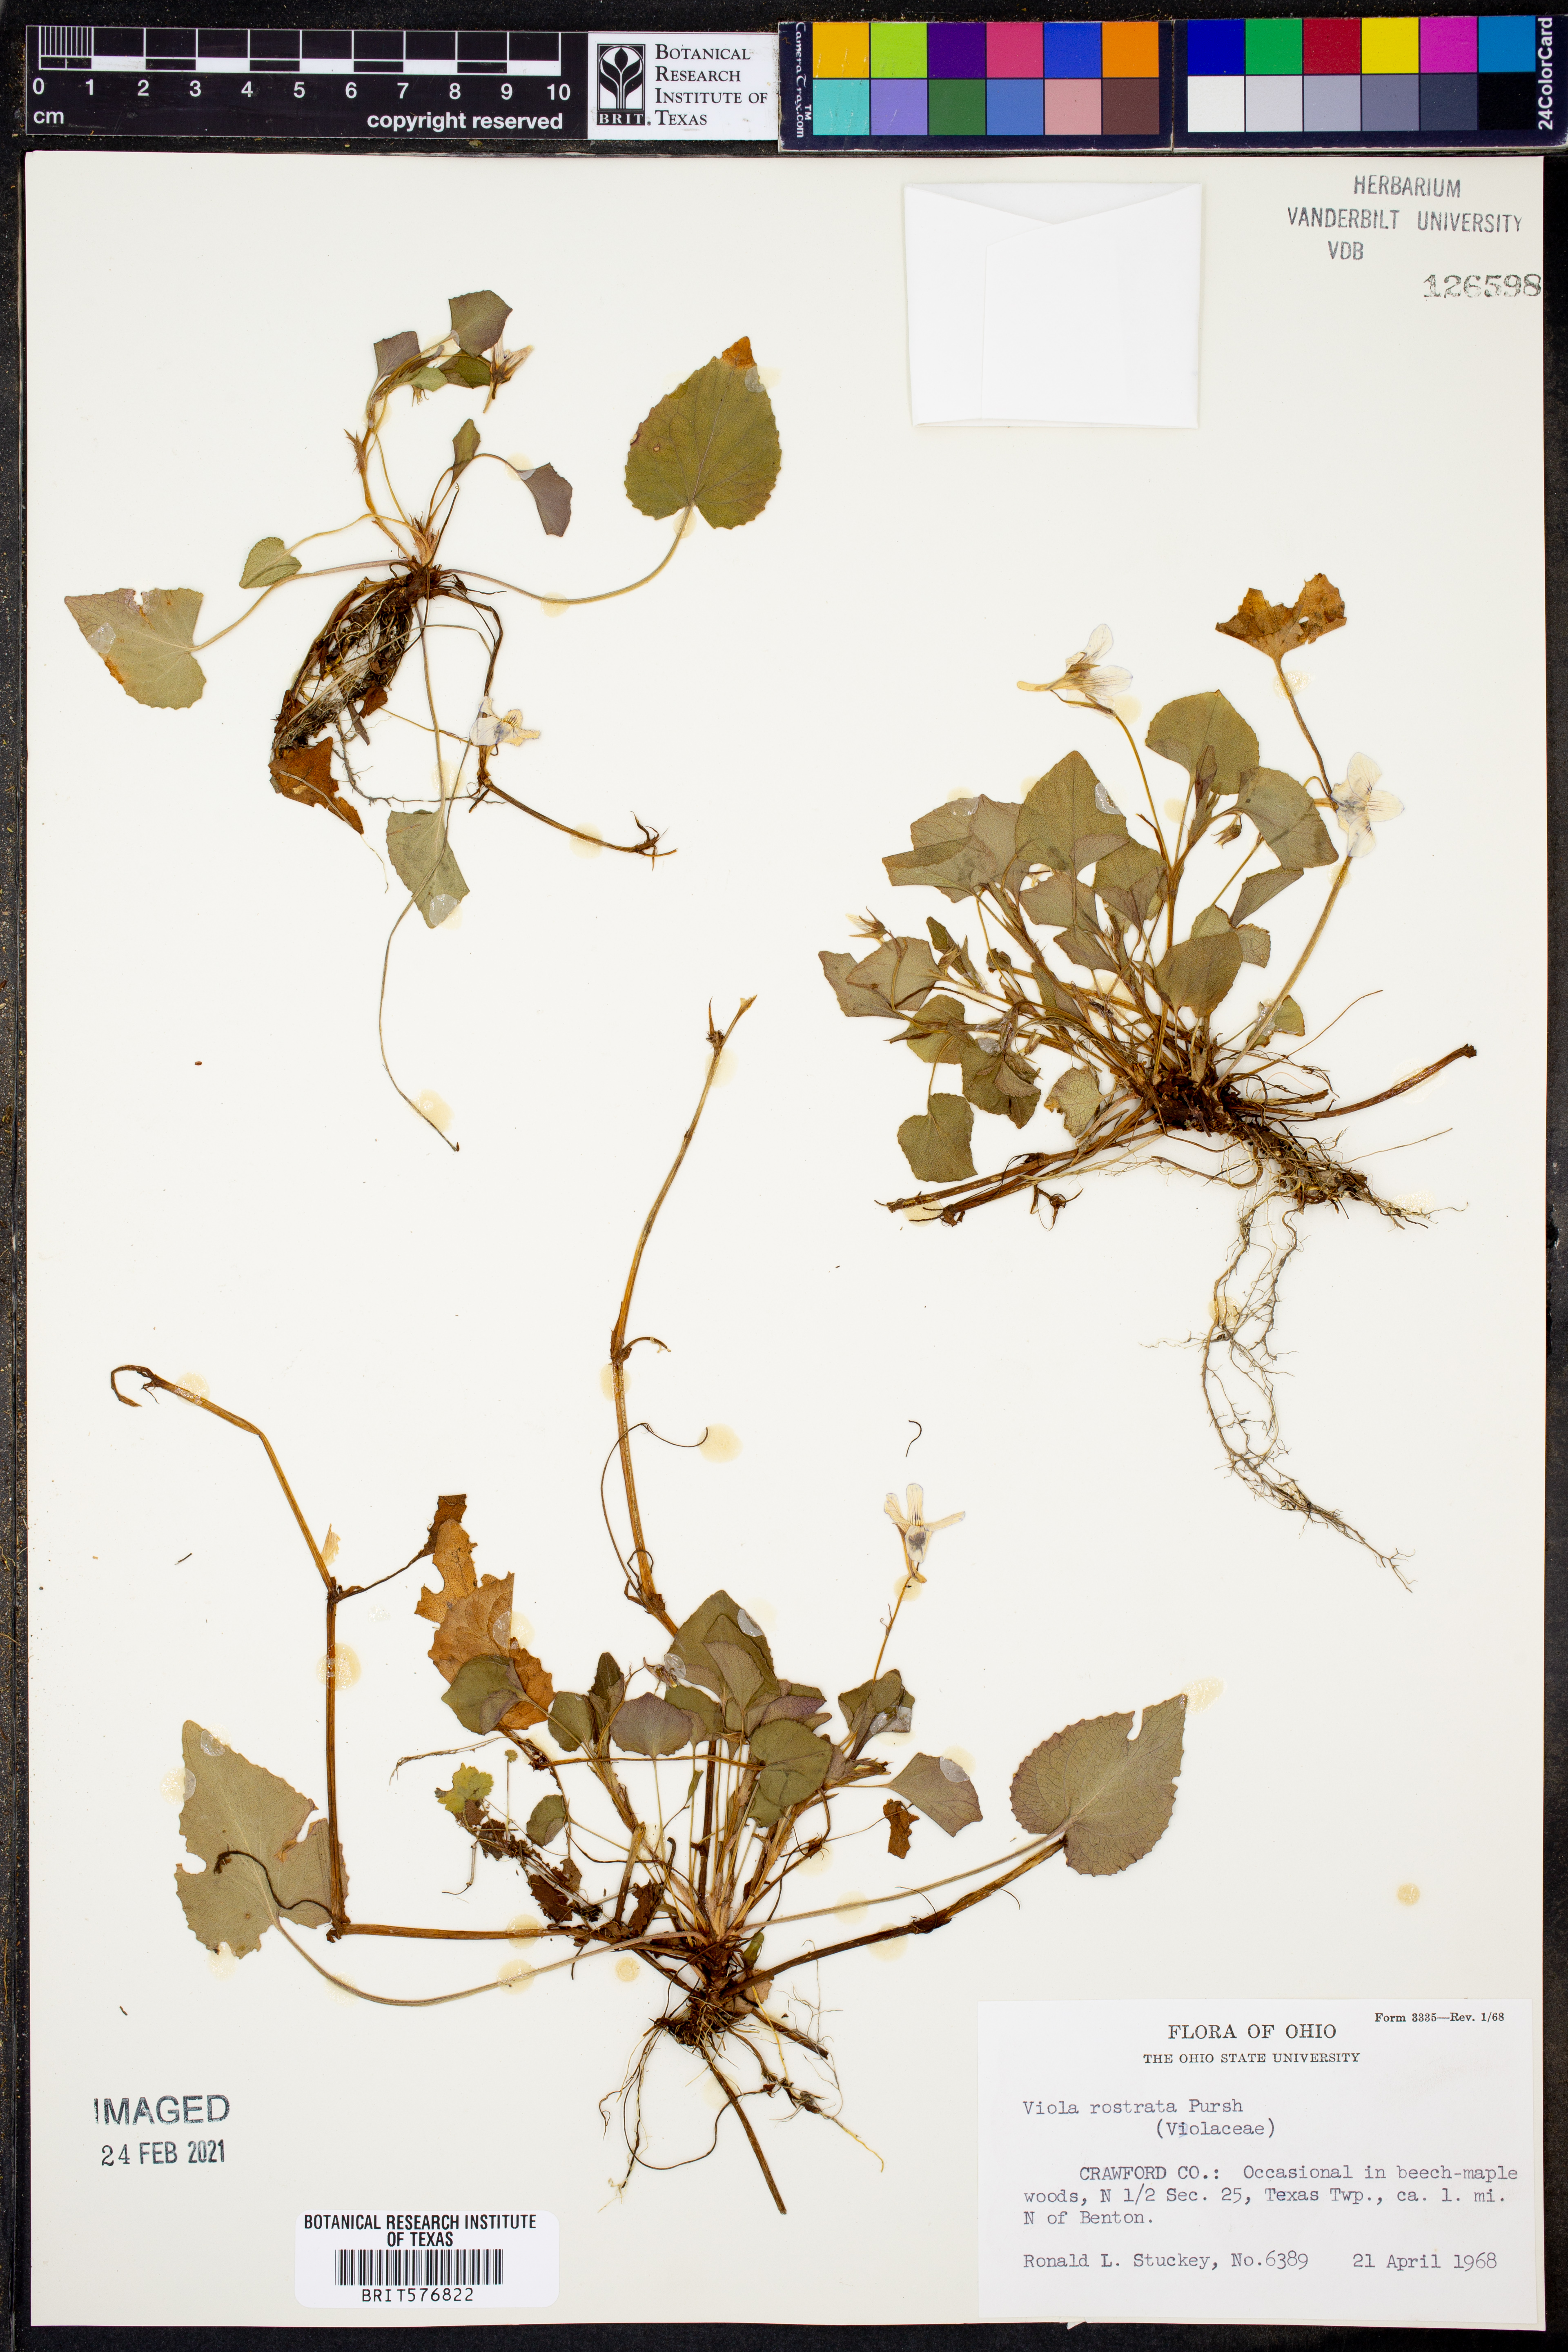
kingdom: Plantae
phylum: Tracheophyta
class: Magnoliopsida
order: Malpighiales
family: Violaceae
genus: Viola
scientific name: Viola rostrata
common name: Long-spur violet
